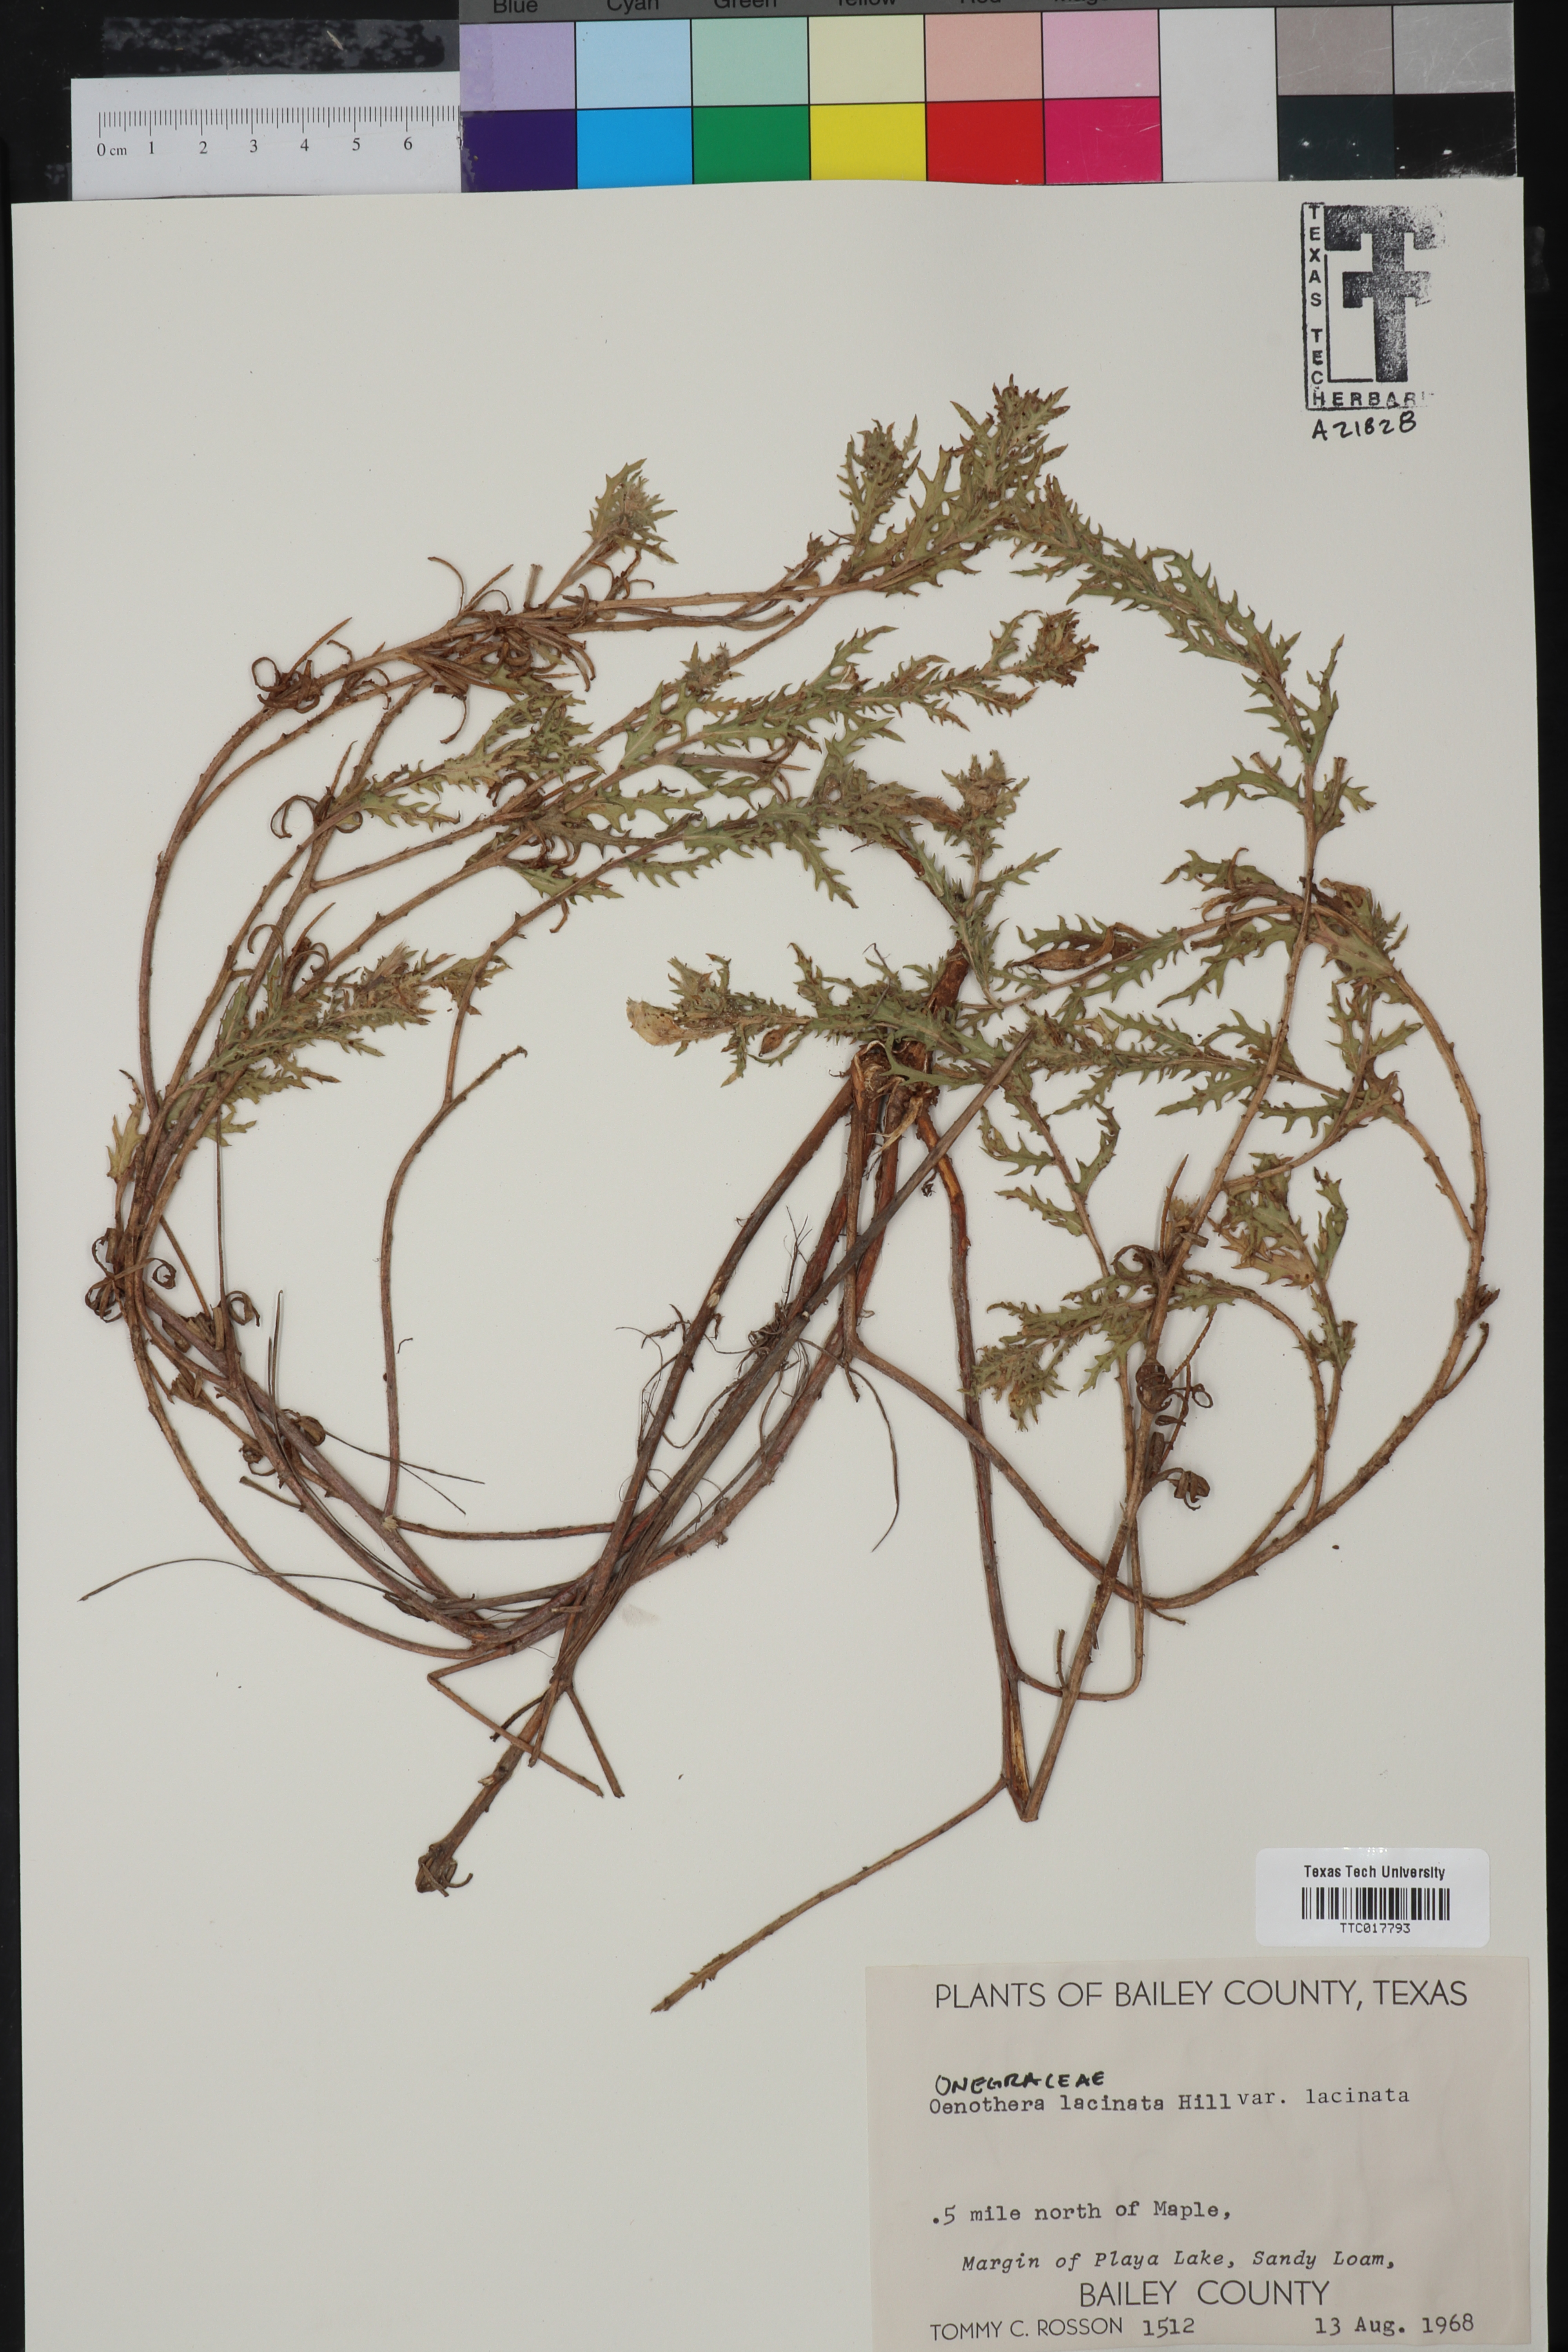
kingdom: Plantae
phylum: Tracheophyta
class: Magnoliopsida
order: Myrtales
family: Onagraceae
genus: Oenothera
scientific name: Oenothera laciniata
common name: Cut-leaved evening-primrose
